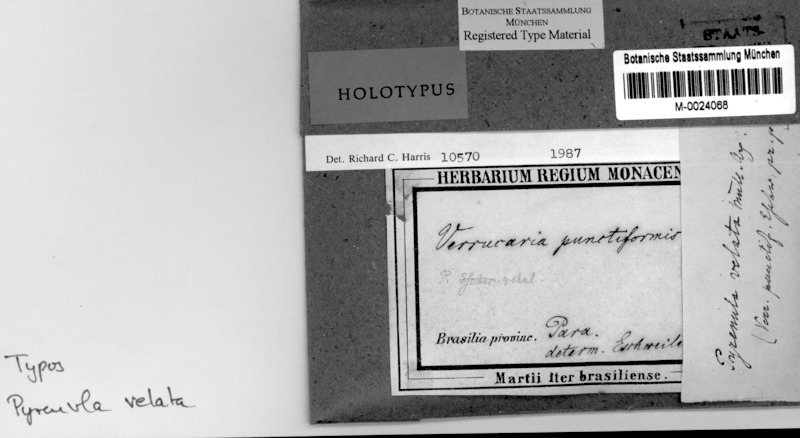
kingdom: Fungi
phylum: Ascomycota
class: Eurotiomycetes
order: Pyrenulales
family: Pyrenulaceae
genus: Pyrenula
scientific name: Pyrenula mamillana
